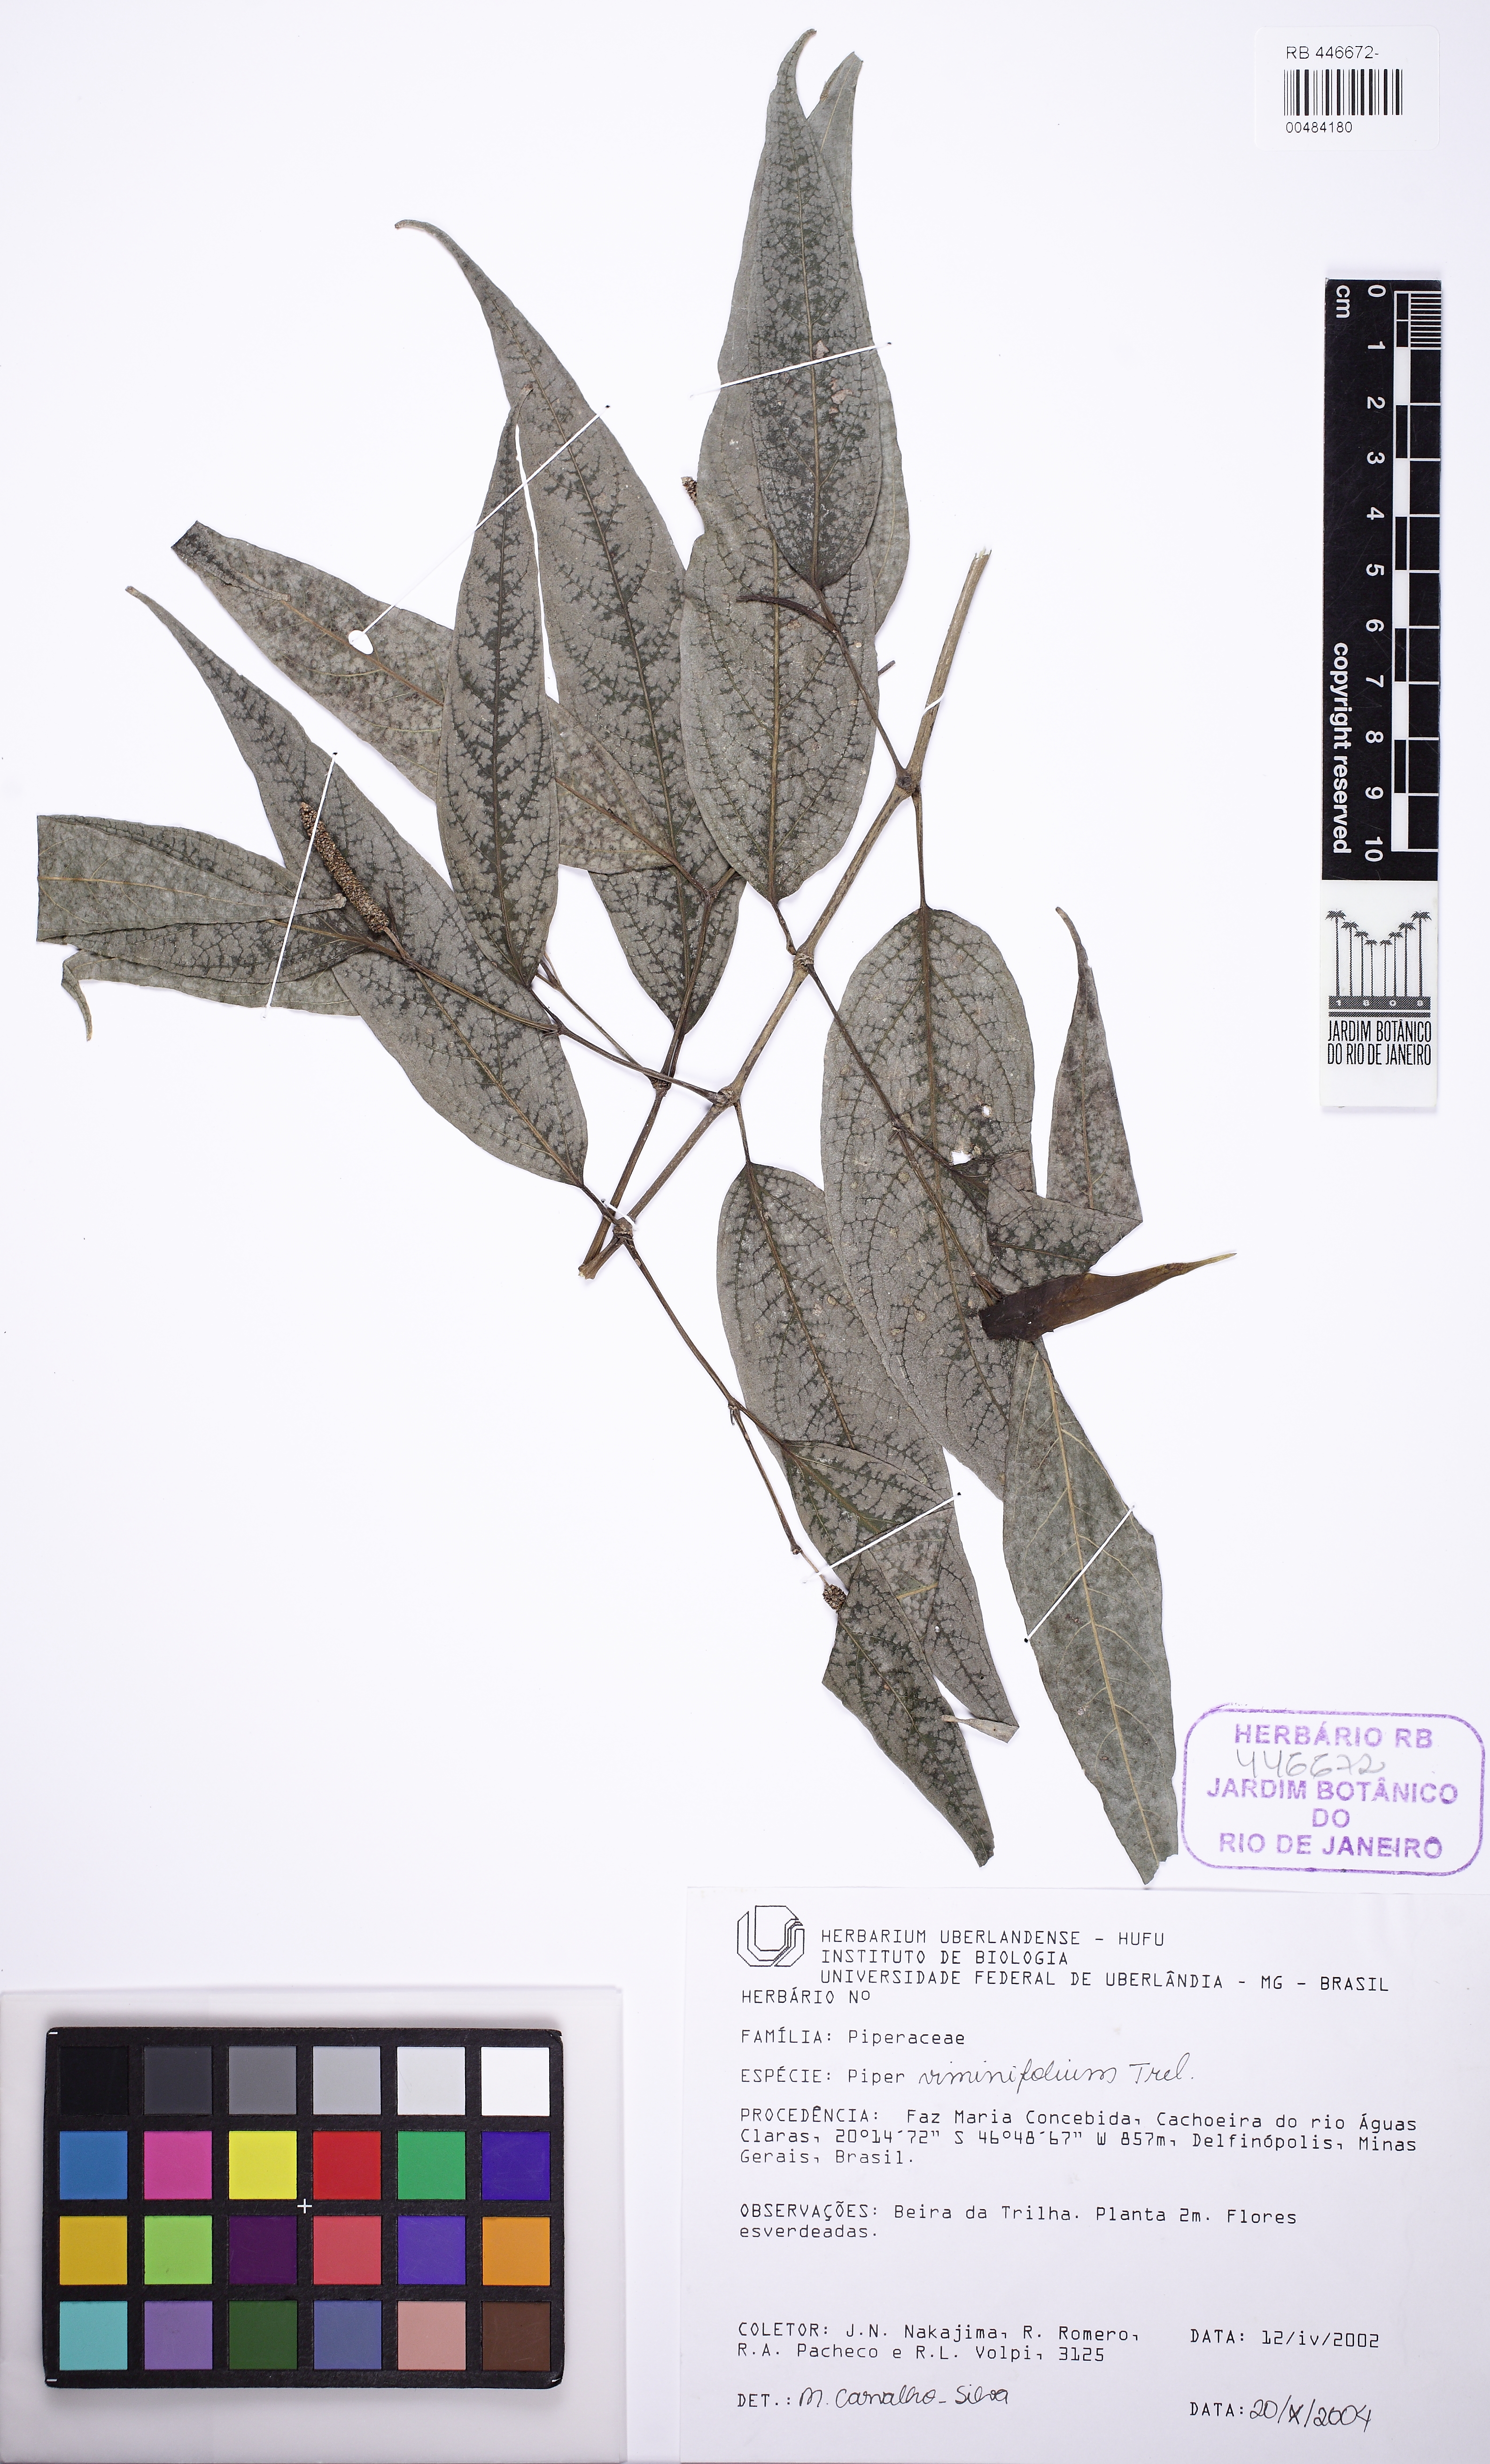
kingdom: Plantae
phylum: Tracheophyta
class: Magnoliopsida
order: Piperales
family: Piperaceae
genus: Piper
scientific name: Piper viminifolium
